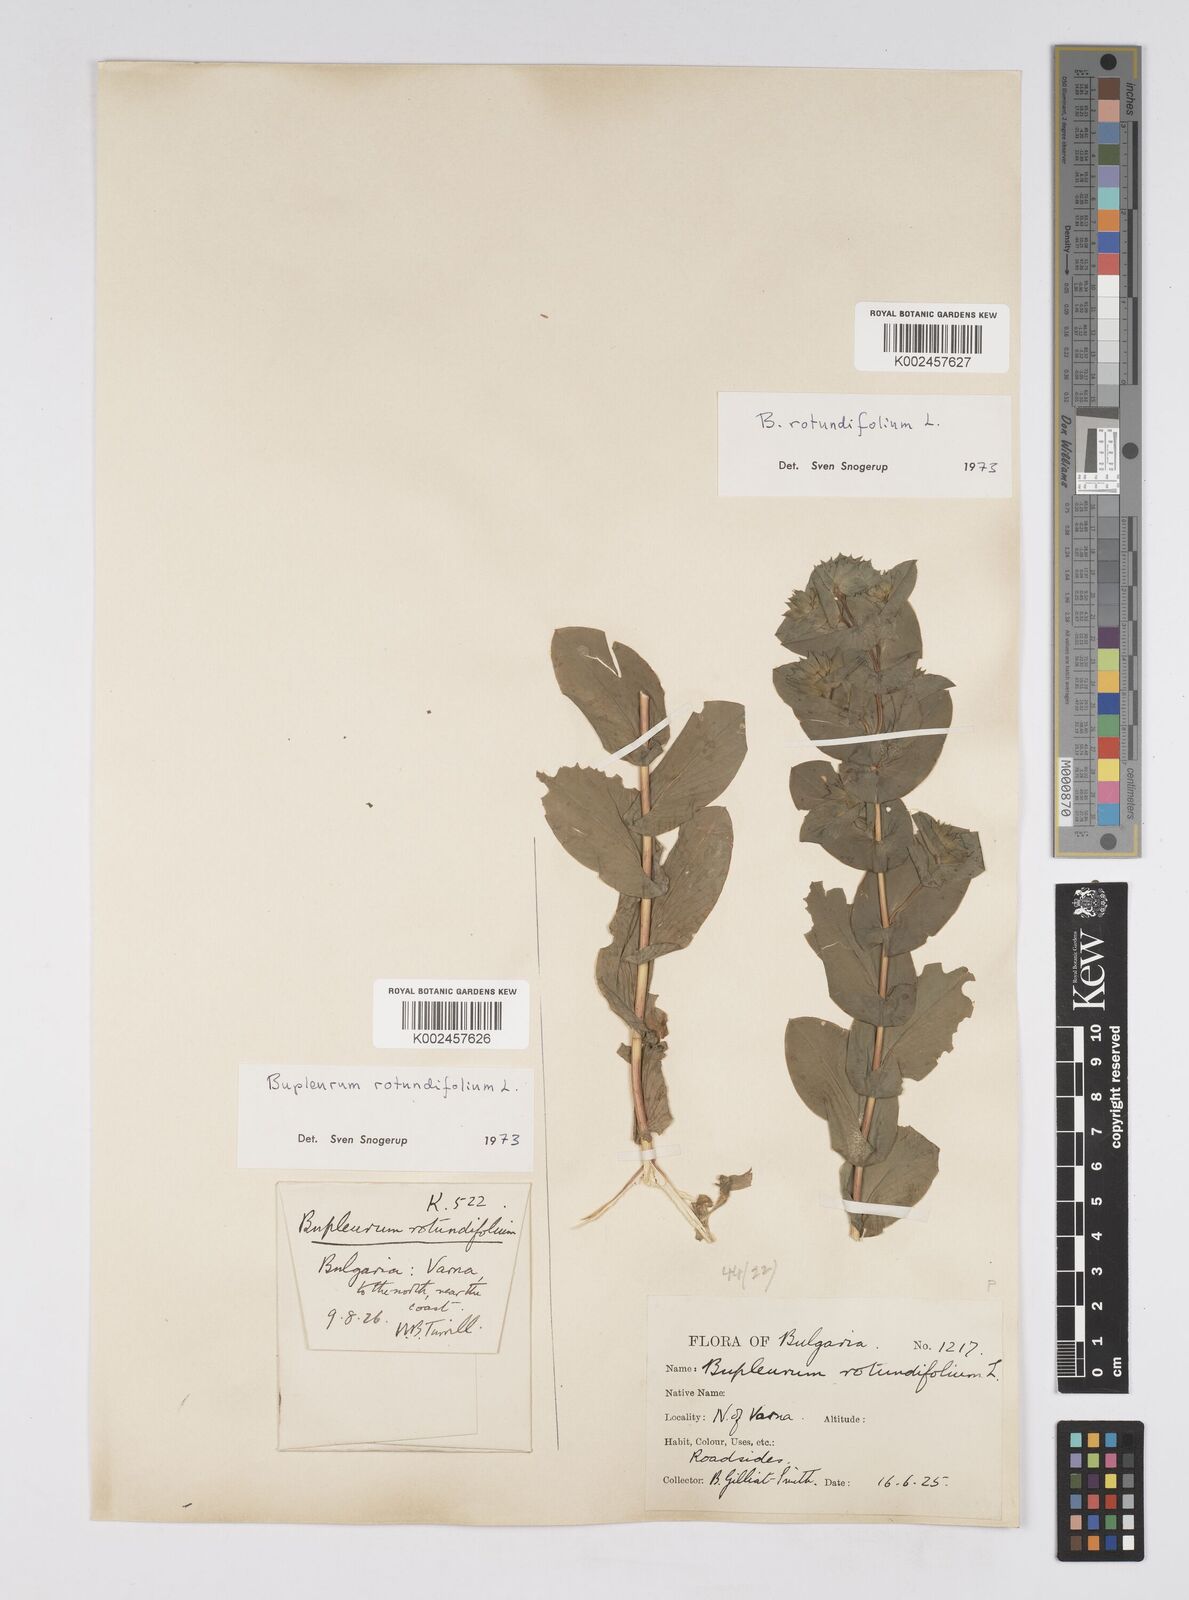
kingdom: Plantae
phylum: Tracheophyta
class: Magnoliopsida
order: Apiales
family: Apiaceae
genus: Bupleurum
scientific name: Bupleurum rotundifolium
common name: Thorow-wax
